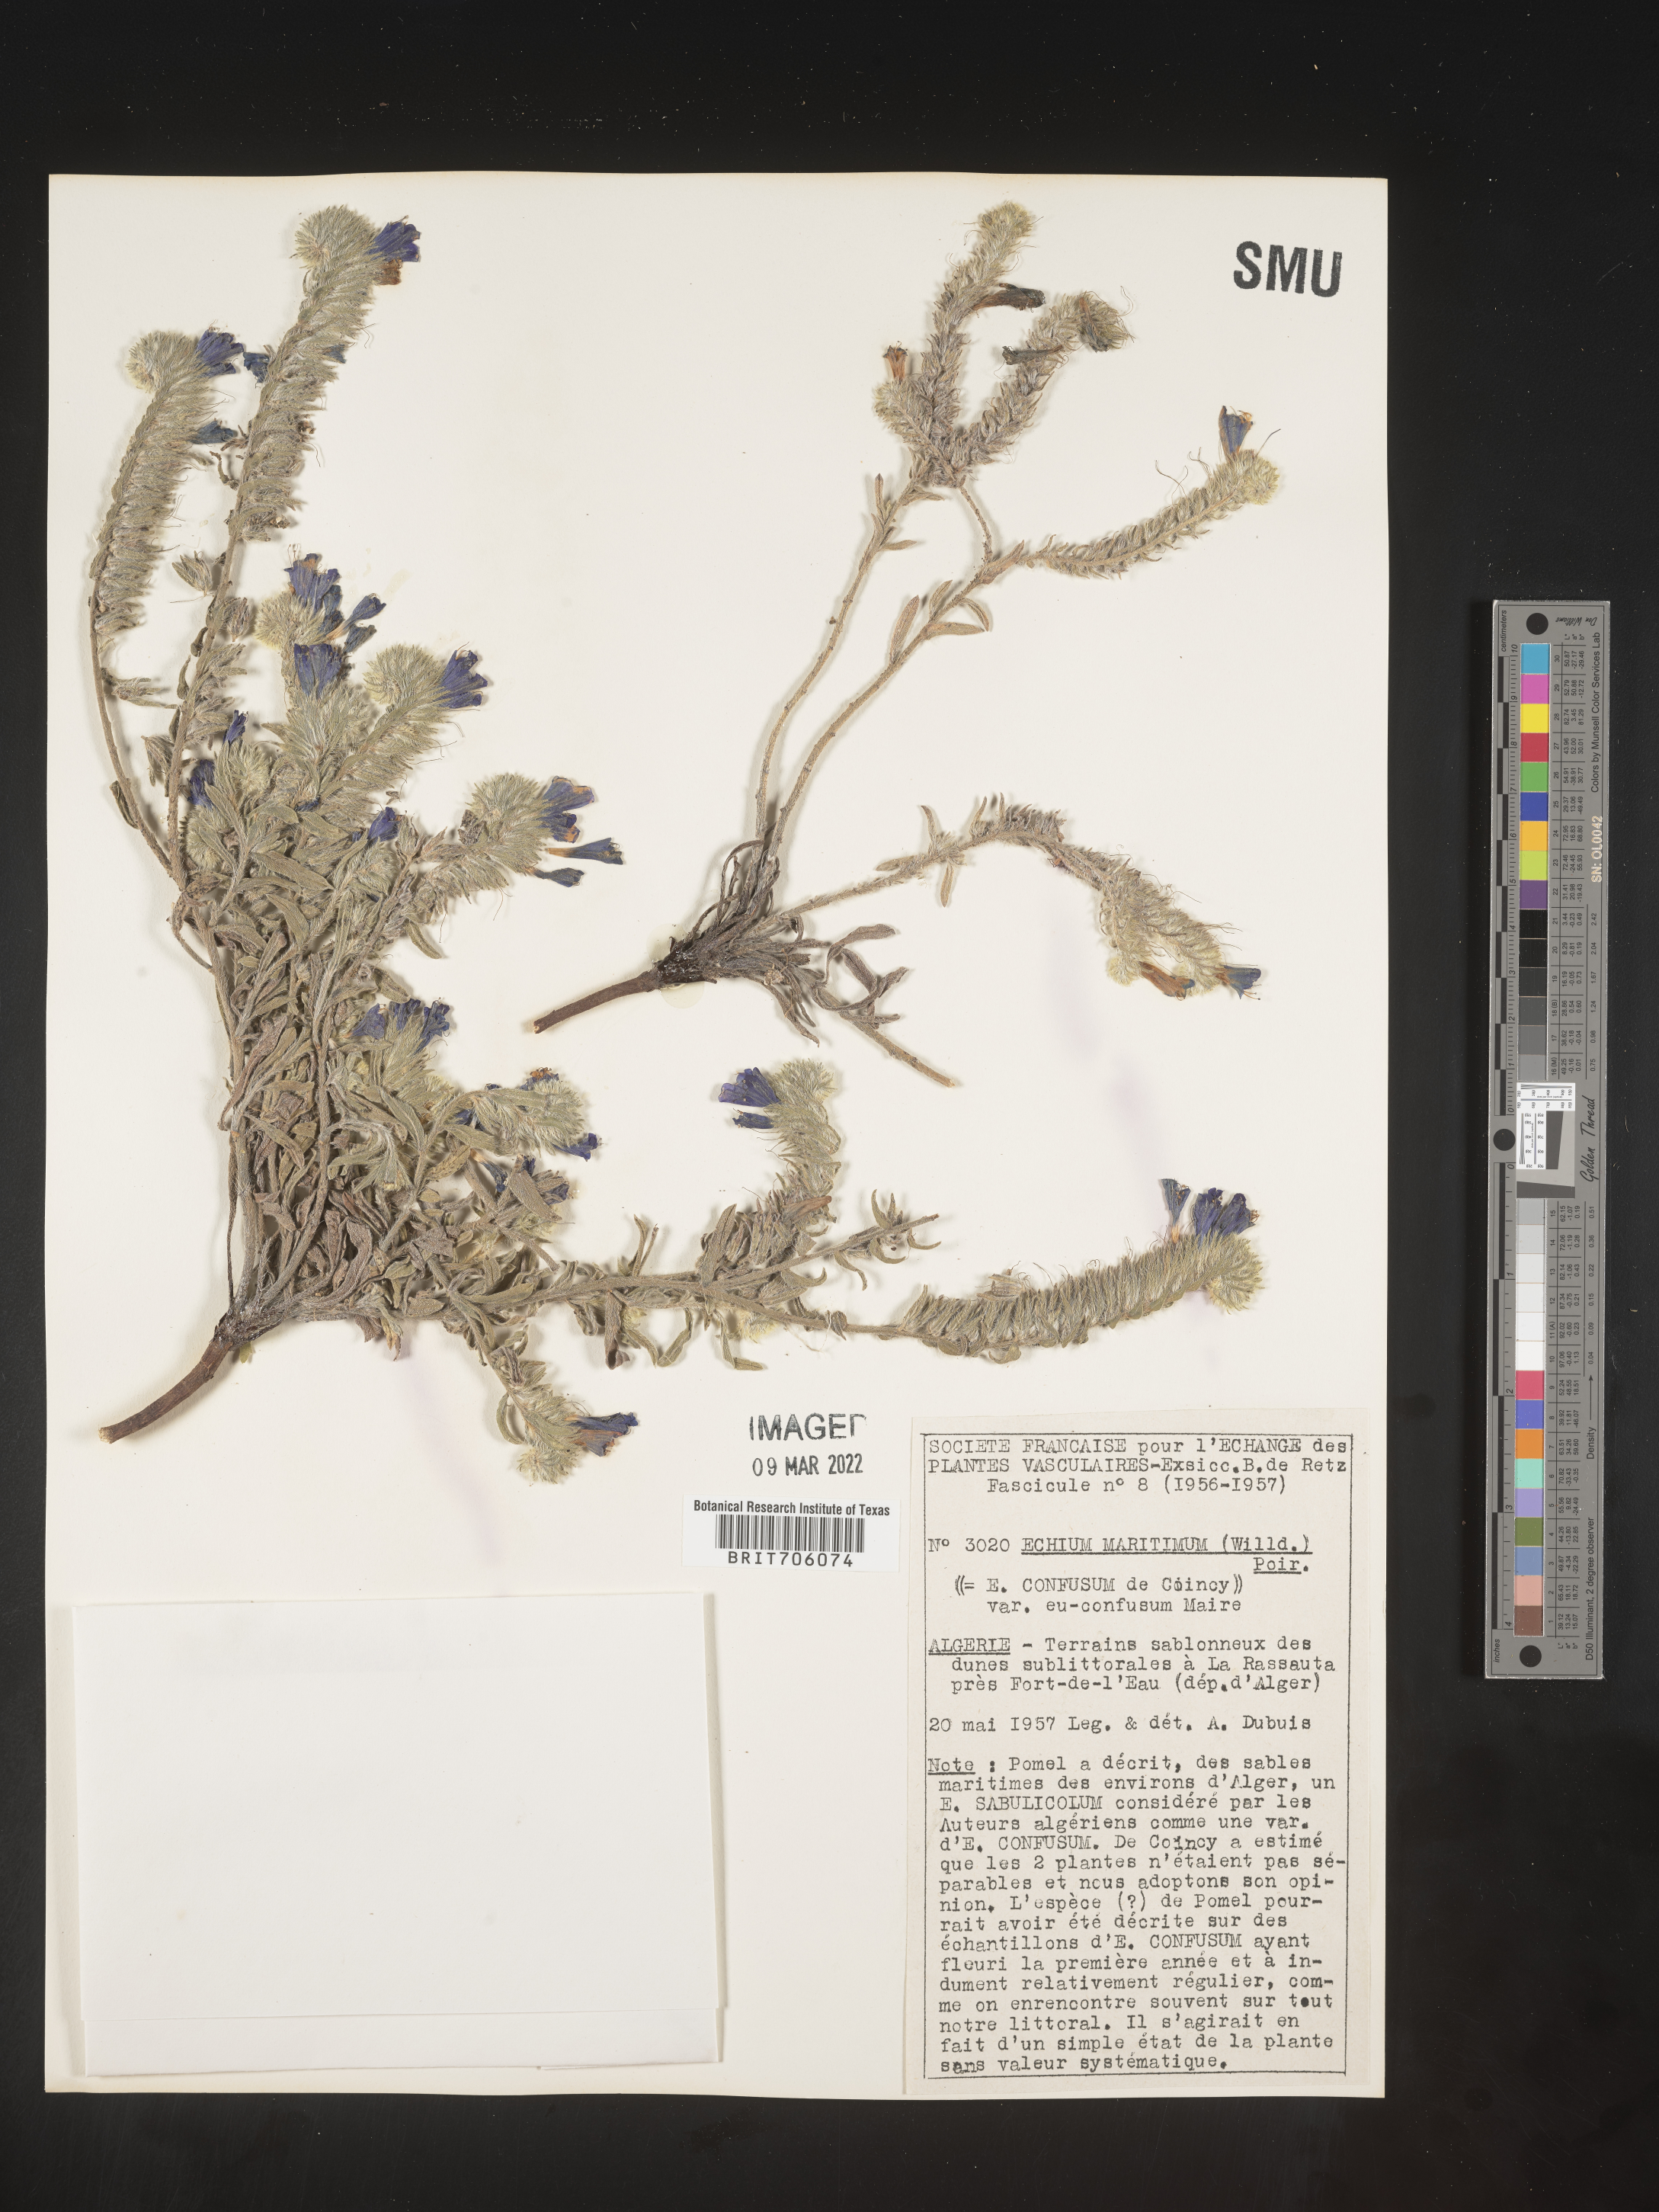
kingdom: Plantae
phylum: Tracheophyta
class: Magnoliopsida
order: Boraginales
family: Boraginaceae
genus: Echium
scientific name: Echium
